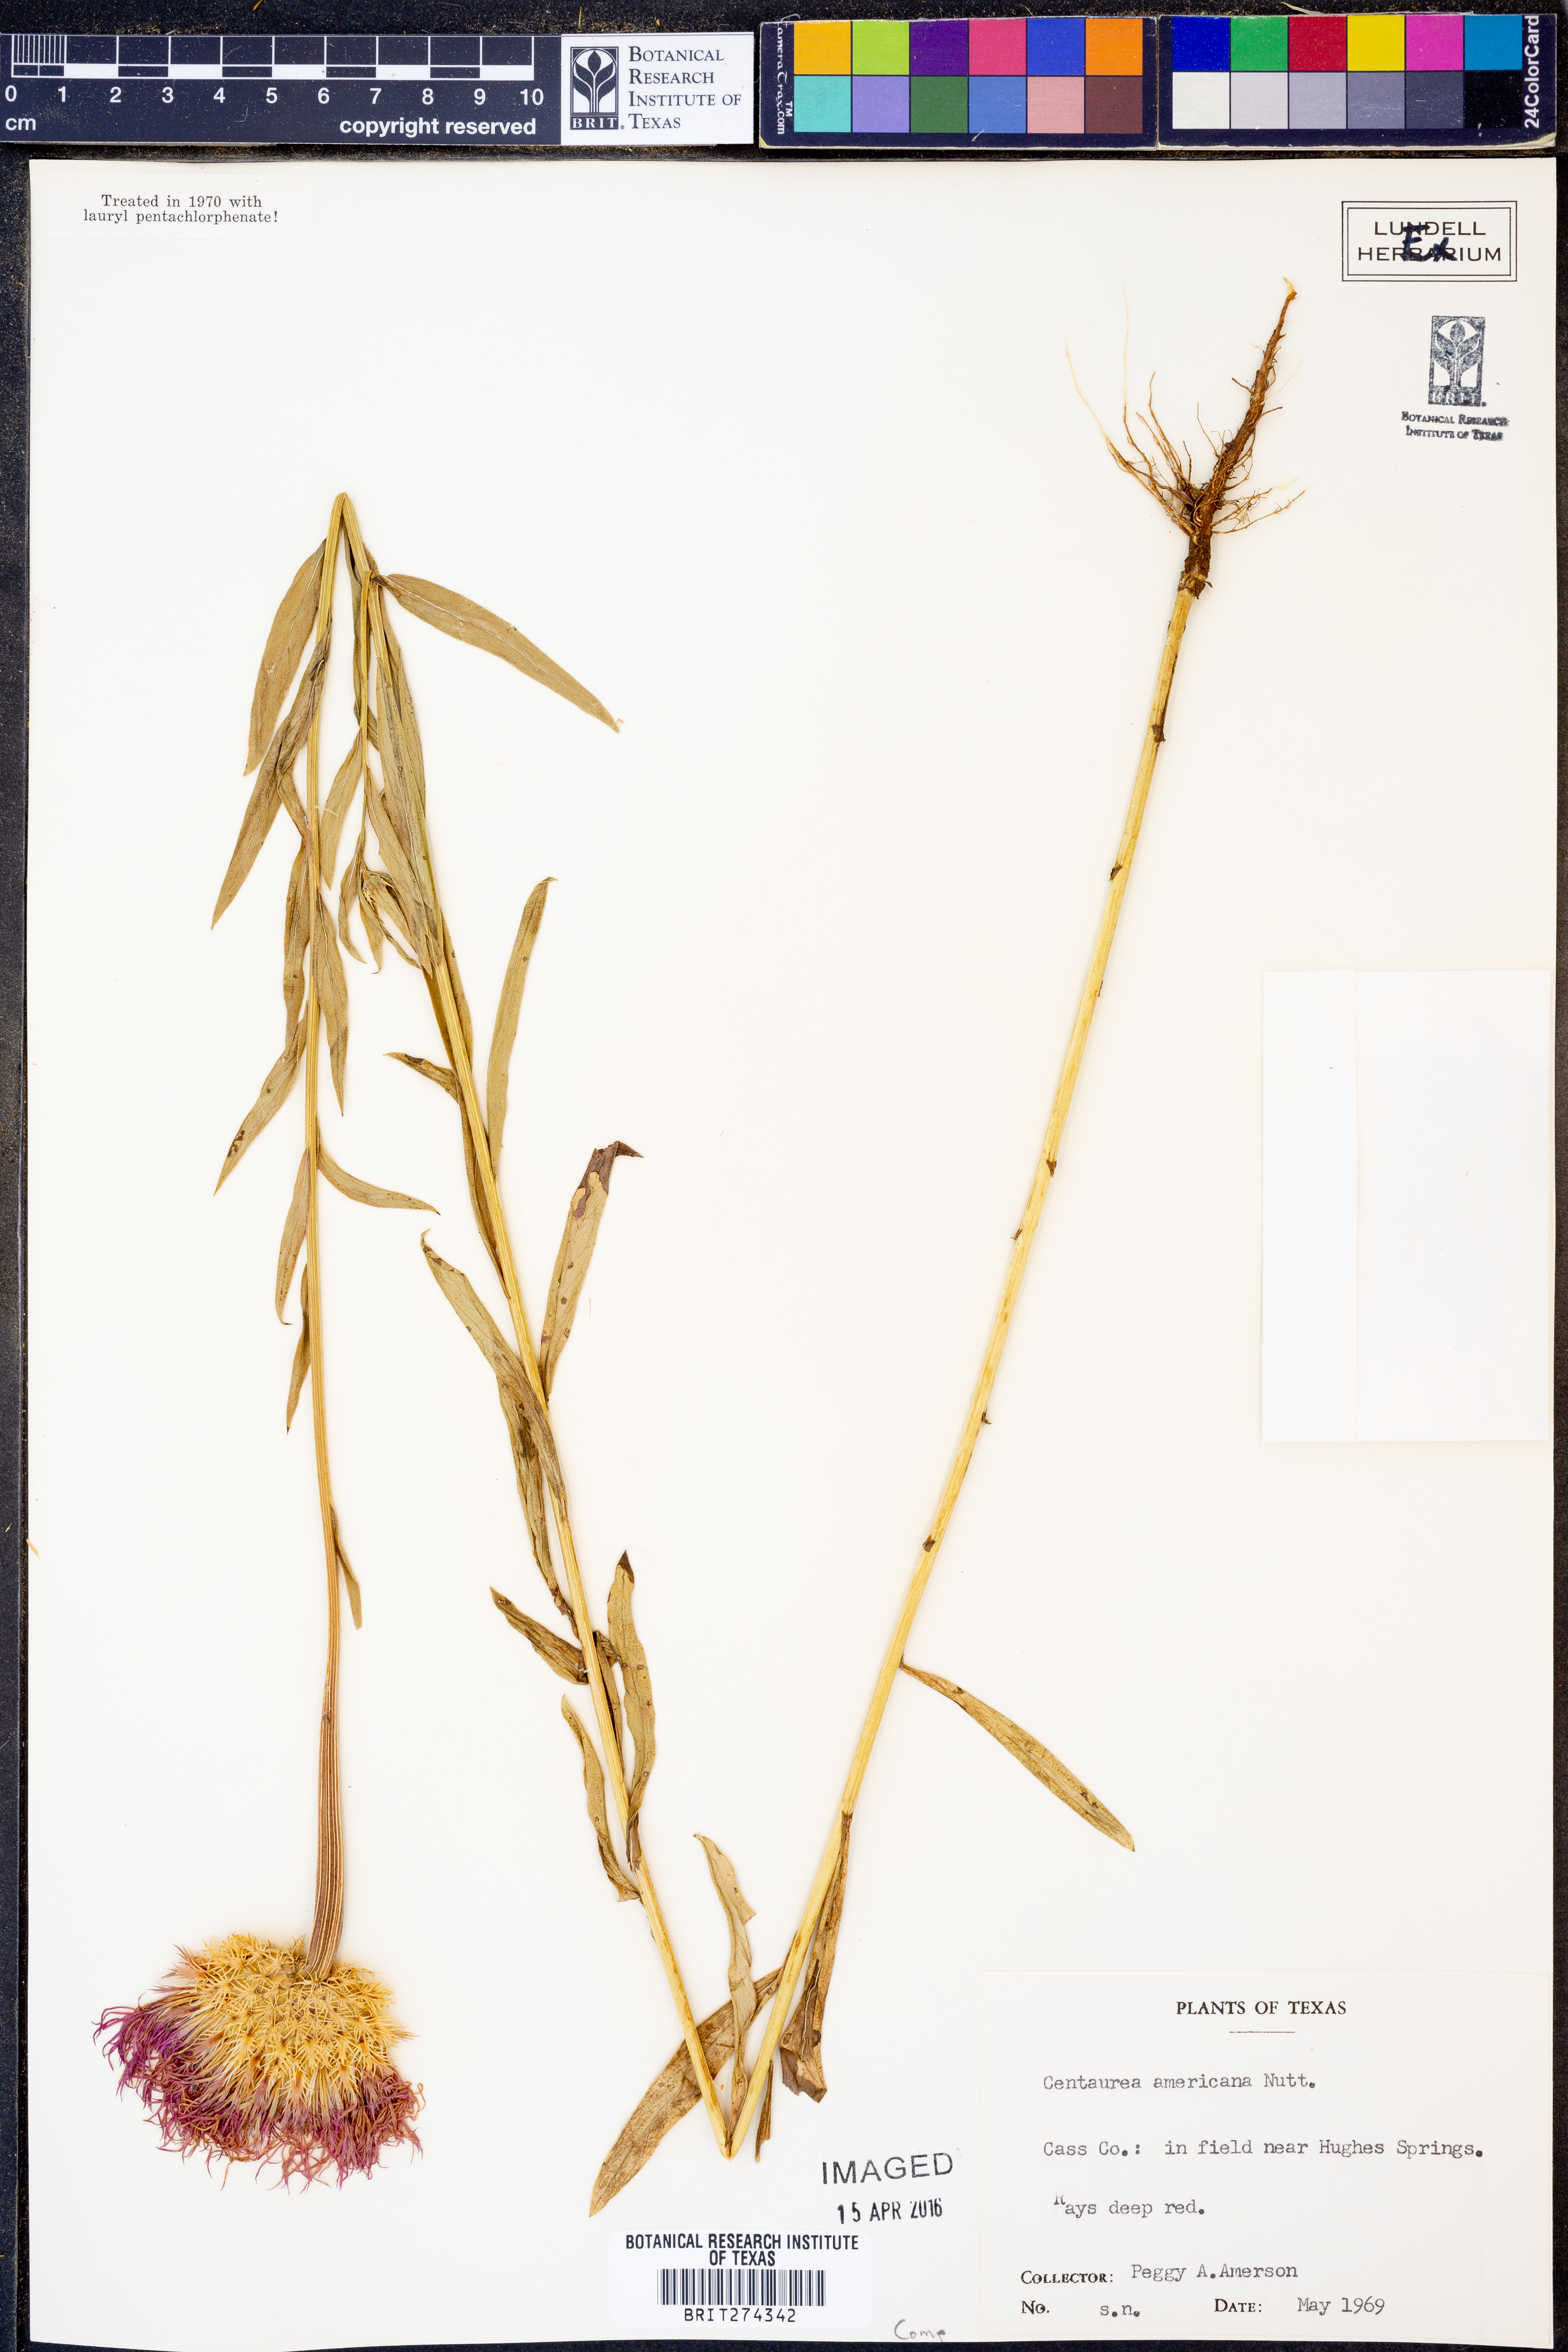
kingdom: Plantae
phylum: Tracheophyta
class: Magnoliopsida
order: Asterales
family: Asteraceae
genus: Plectocephalus
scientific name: Plectocephalus americanus
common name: American basket-flower
